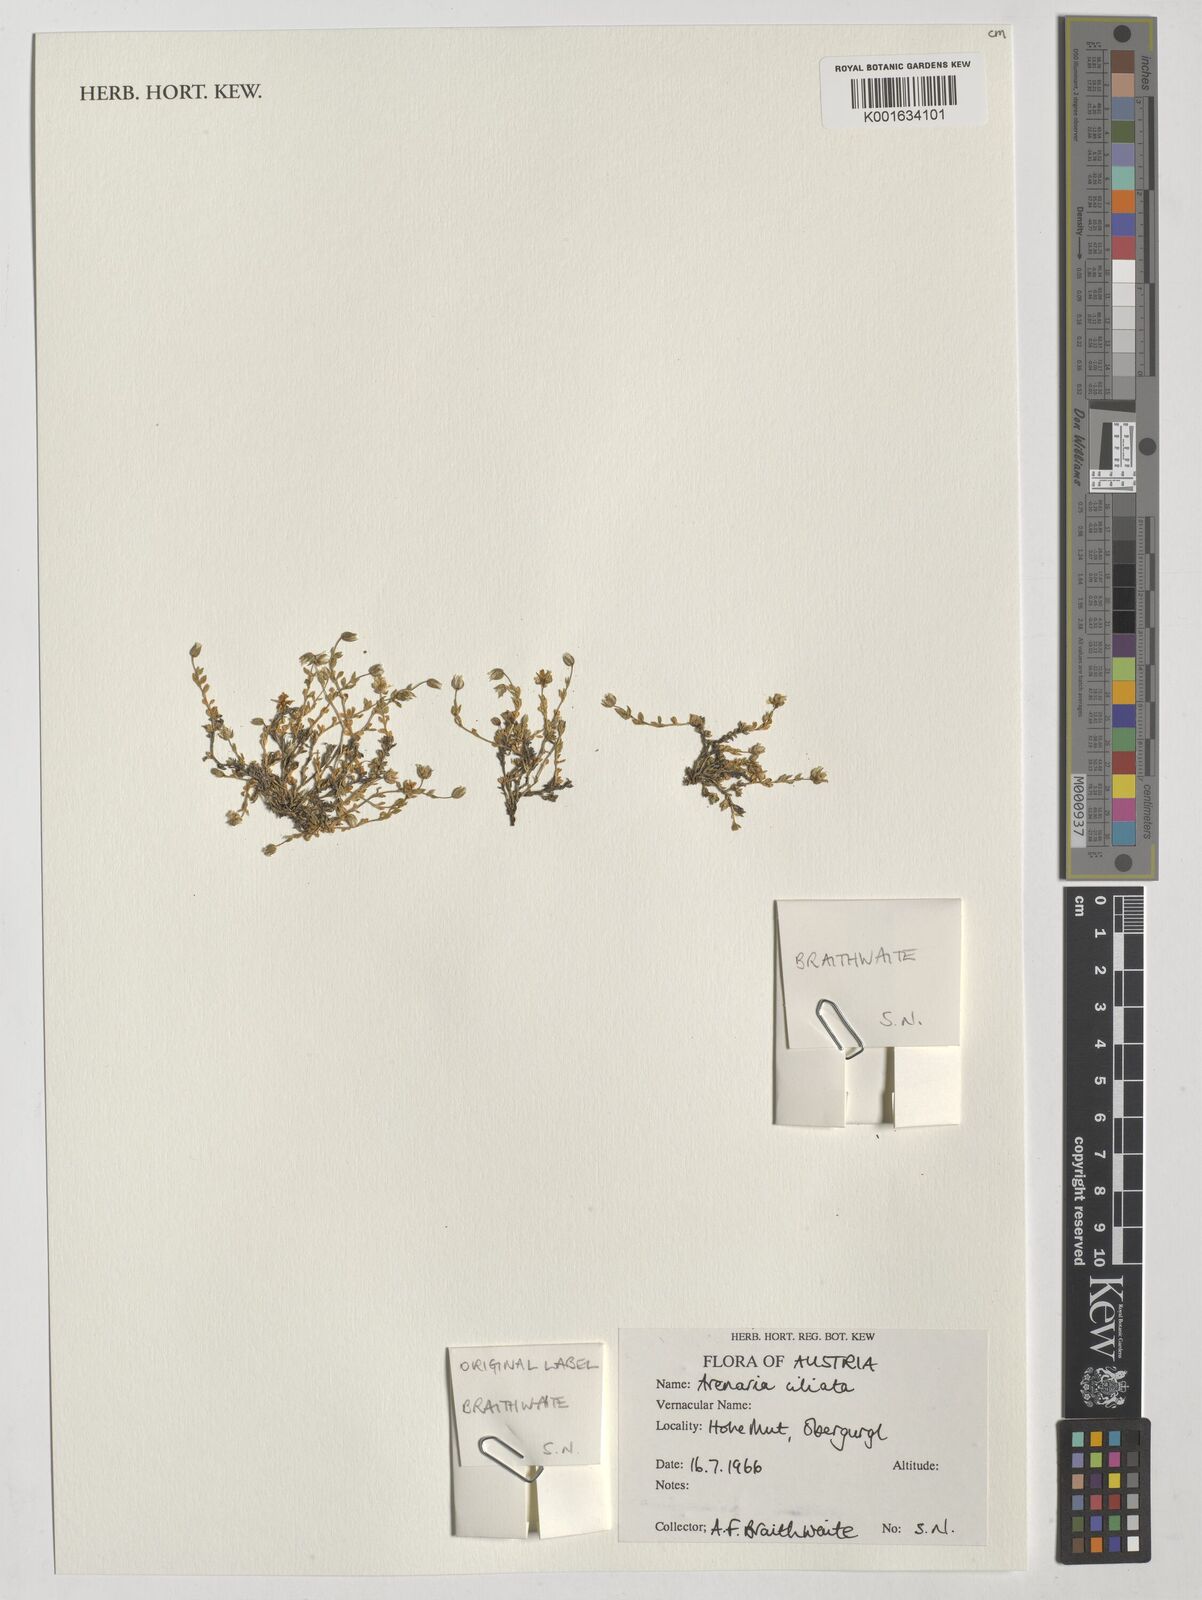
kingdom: Plantae
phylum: Tracheophyta
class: Magnoliopsida
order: Caryophyllales
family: Caryophyllaceae
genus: Arenaria
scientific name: Arenaria ciliata
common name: Fringed sandwort
